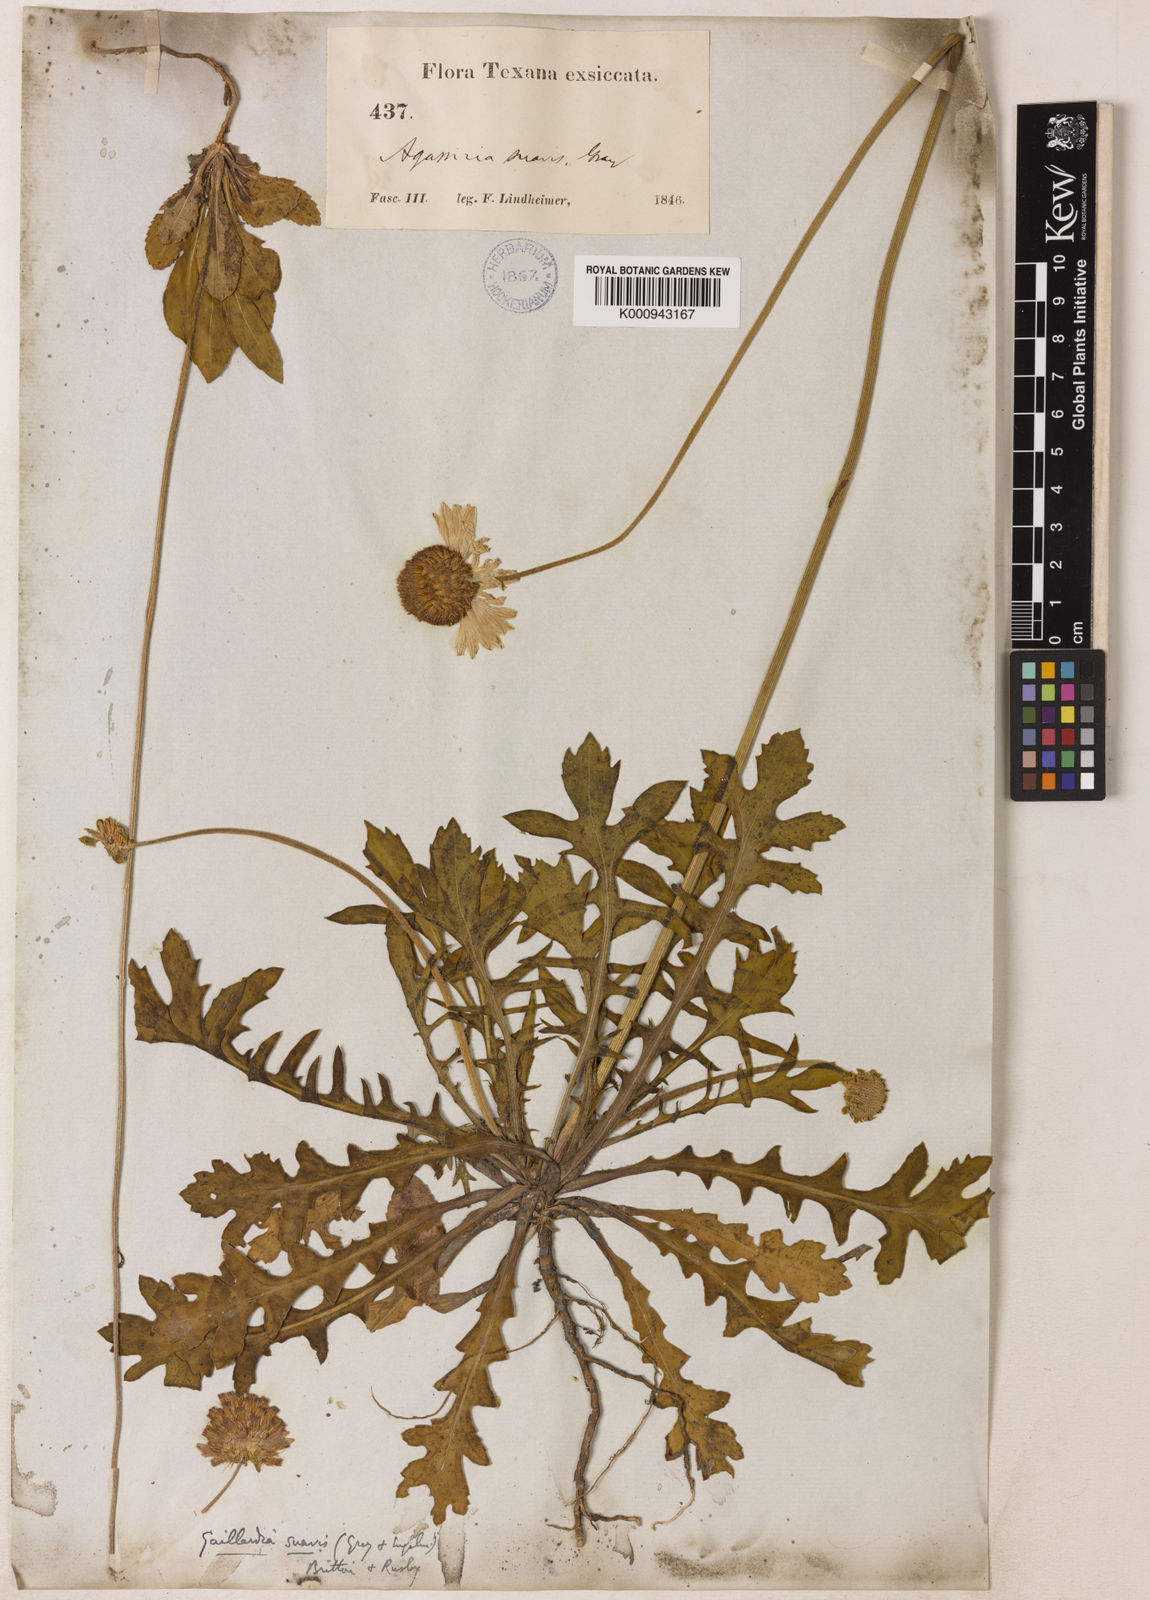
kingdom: Plantae
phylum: Tracheophyta
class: Magnoliopsida
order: Asterales
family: Asteraceae
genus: Gaillardia
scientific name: Gaillardia suavis
